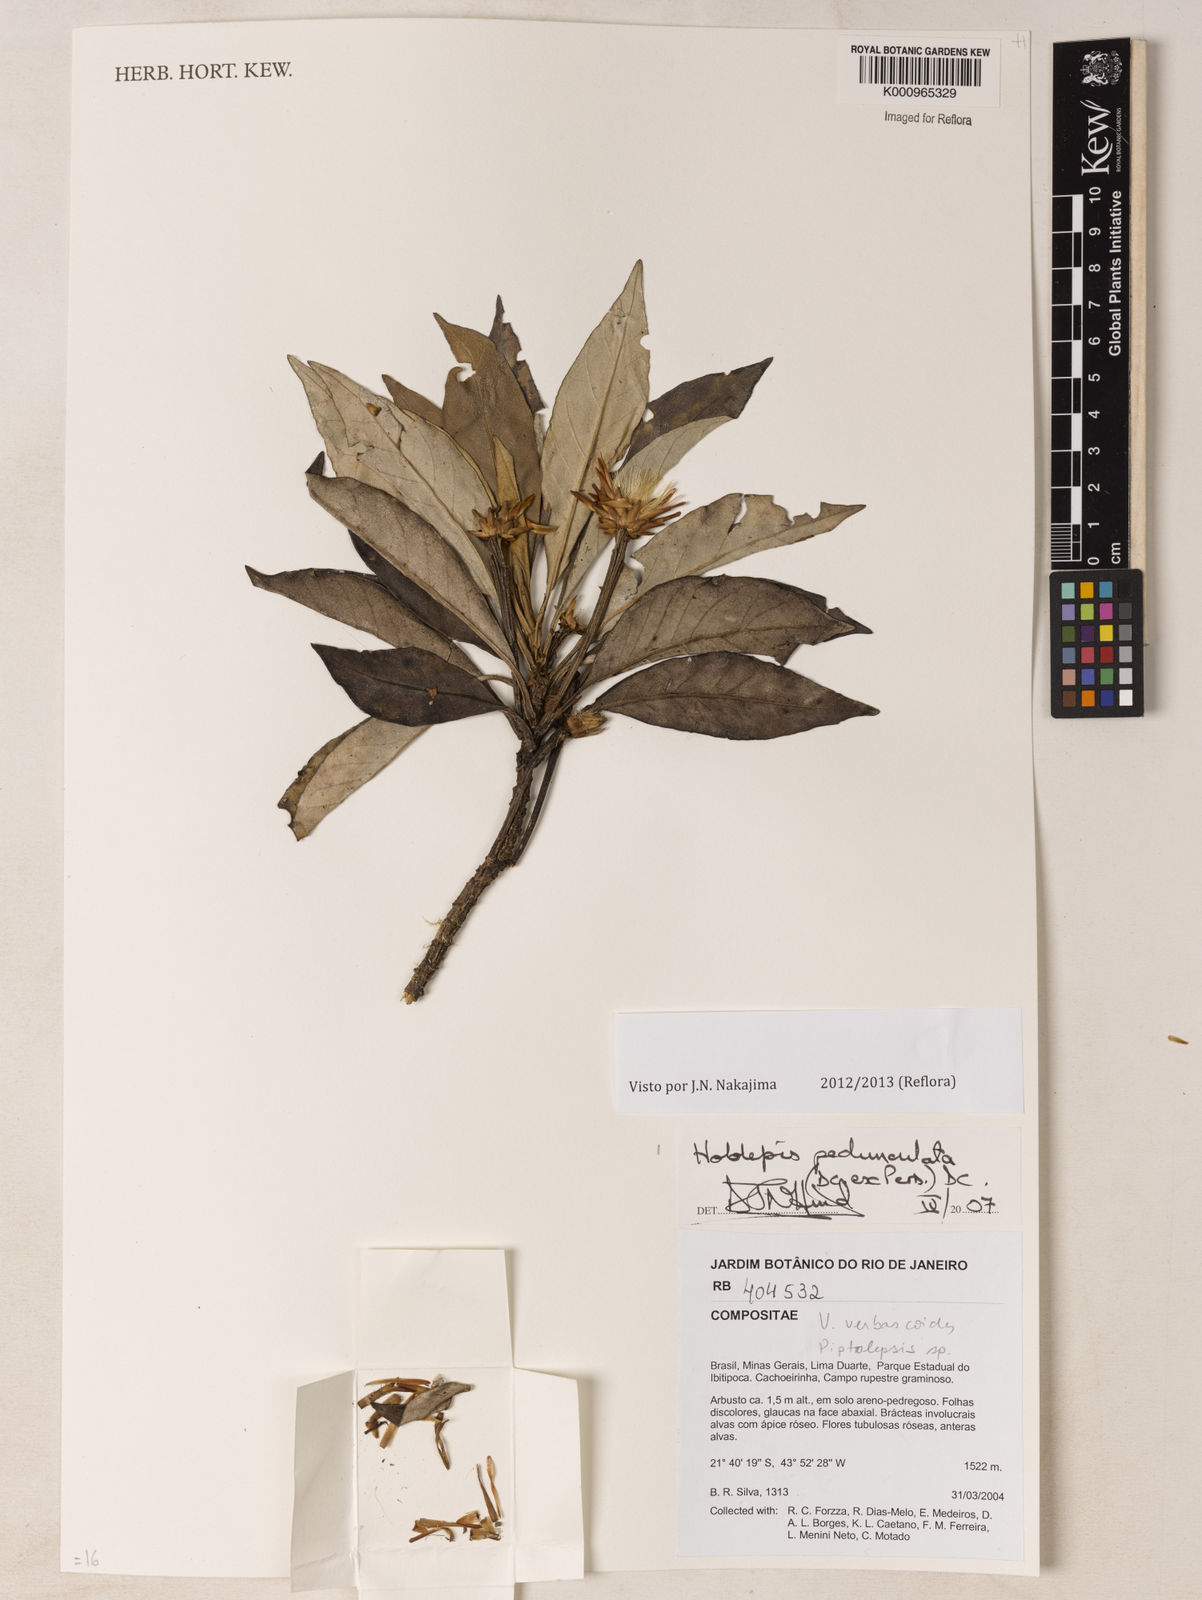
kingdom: Plantae
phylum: Tracheophyta
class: Magnoliopsida
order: Asterales
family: Asteraceae
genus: Hololepis
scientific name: Hololepis pedunculata
